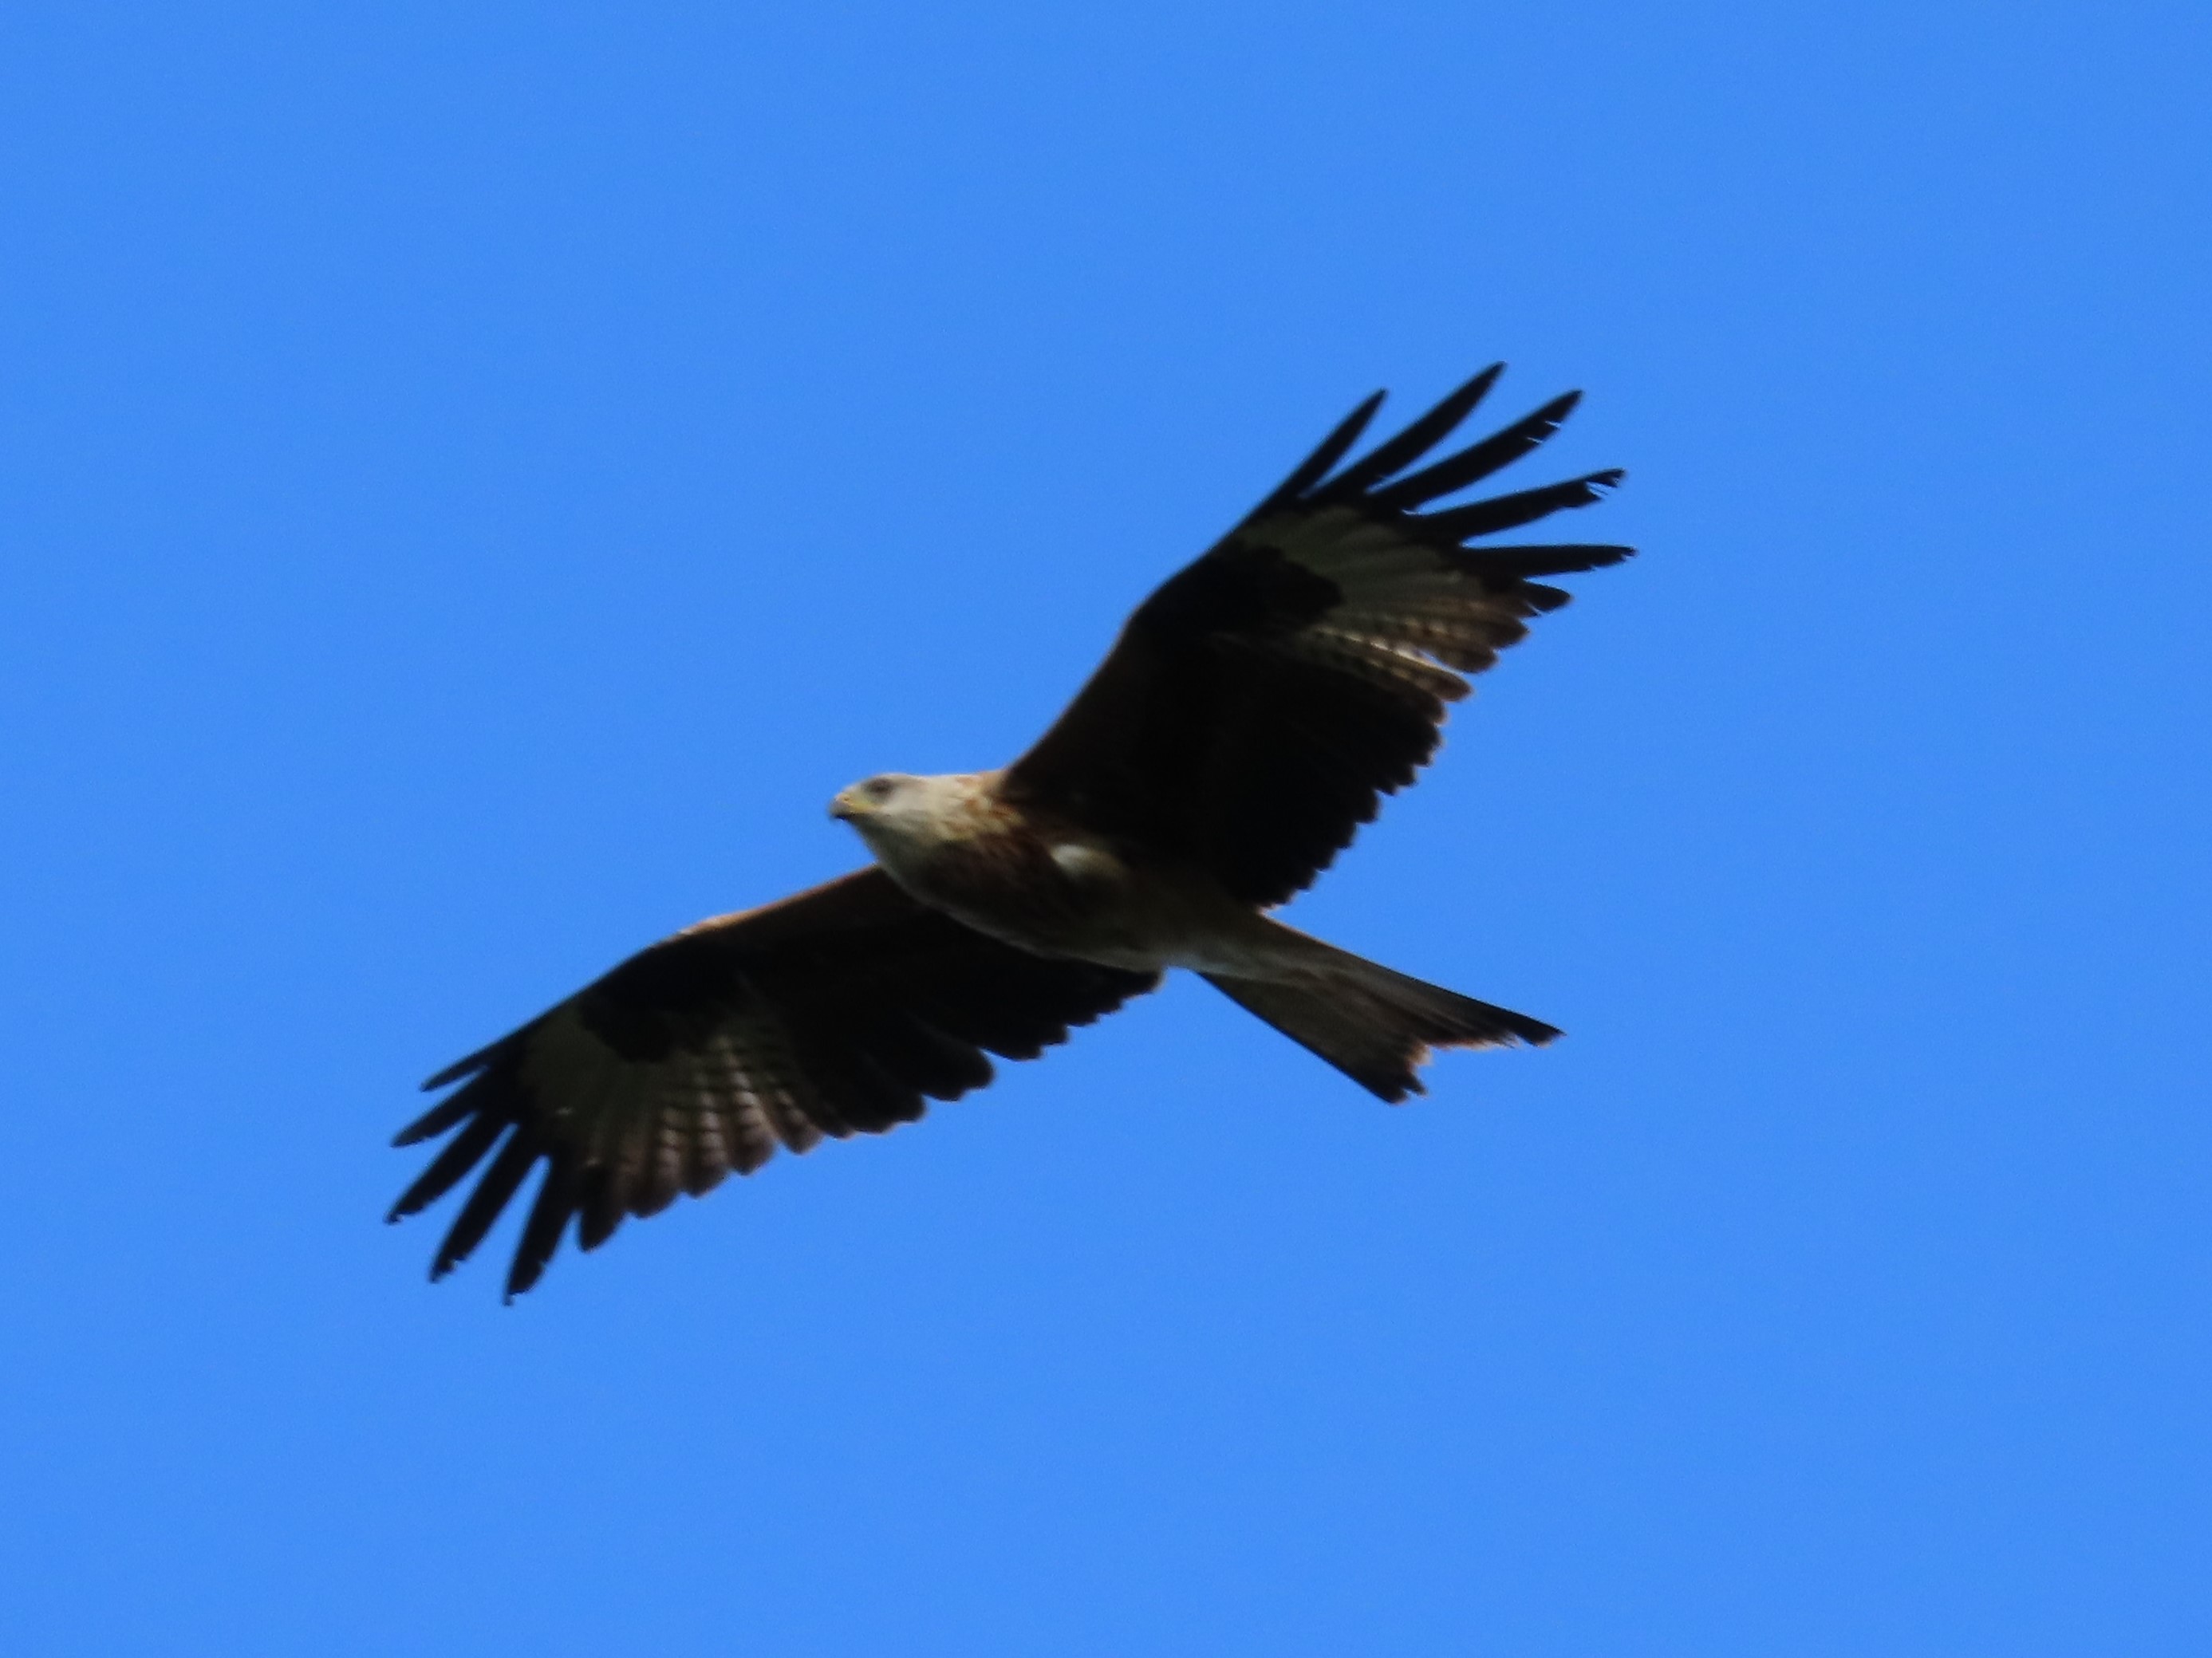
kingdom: Animalia
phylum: Chordata
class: Aves
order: Accipitriformes
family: Accipitridae
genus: Milvus
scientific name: Milvus milvus
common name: Rød glente
